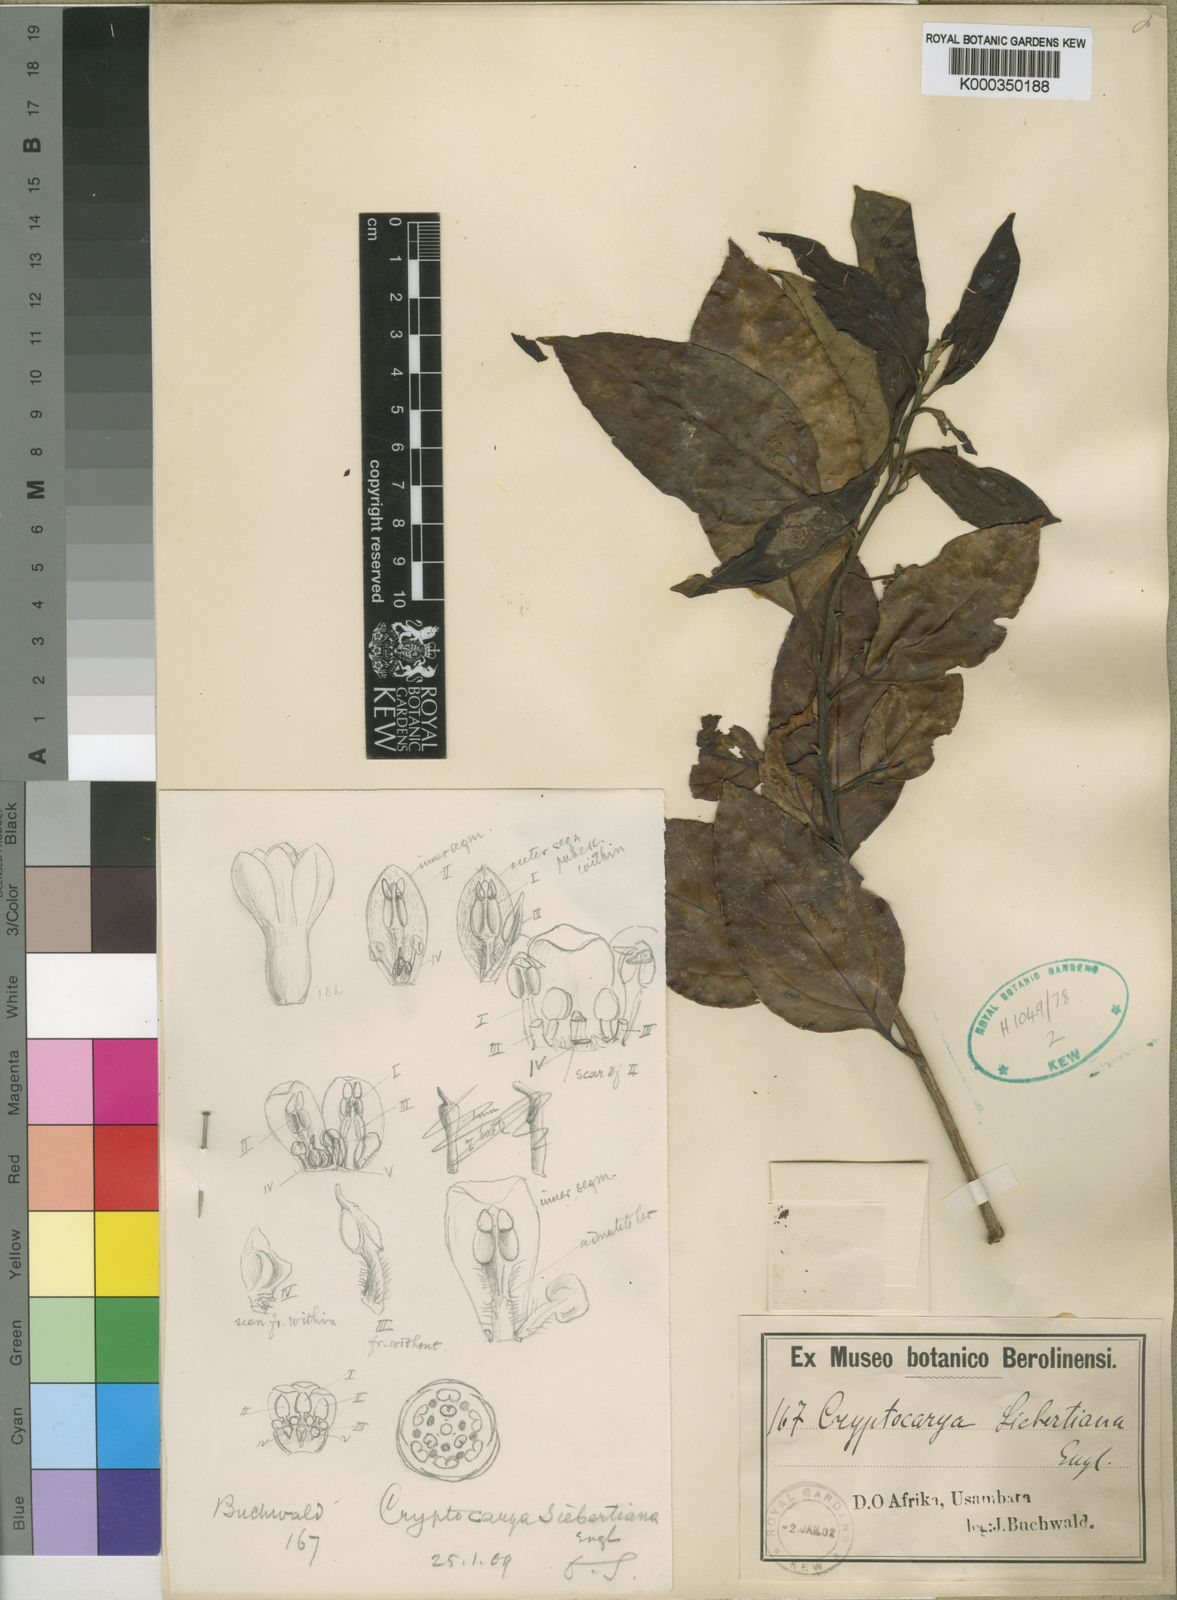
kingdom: Plantae
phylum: Tracheophyta
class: Magnoliopsida
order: Laurales
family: Lauraceae
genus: Cryptocarya
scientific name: Cryptocarya liebertiana
